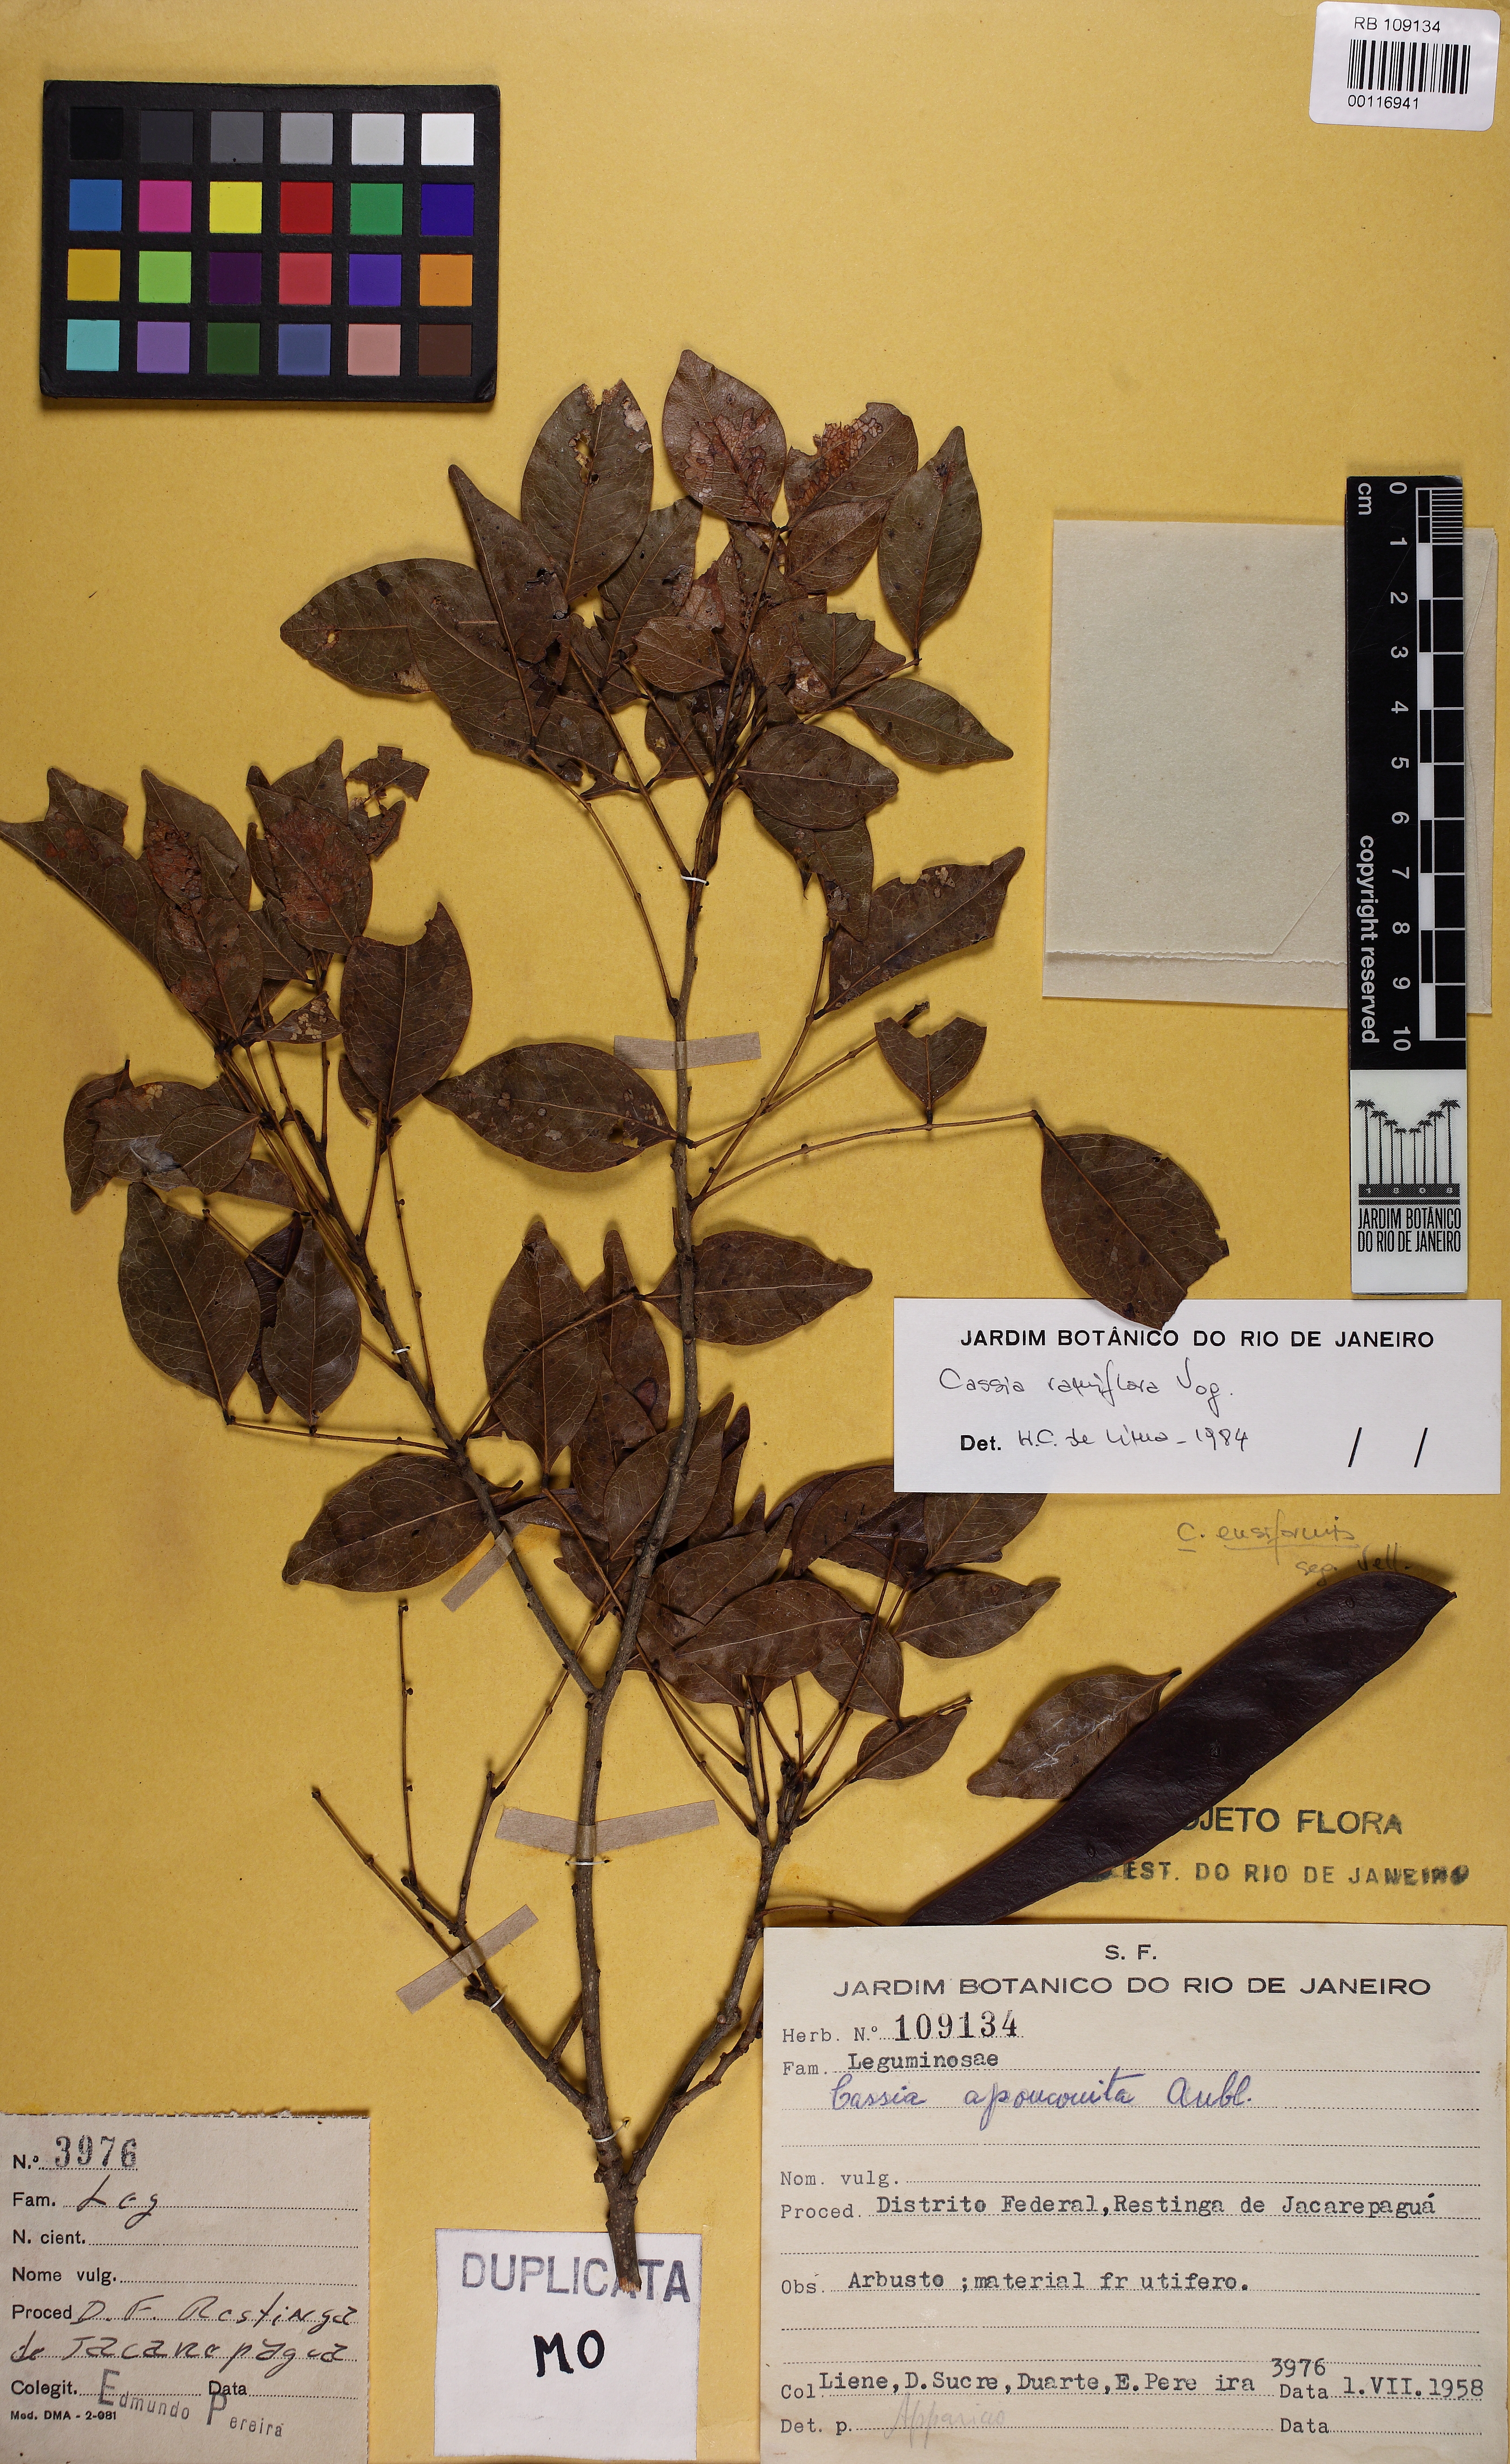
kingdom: Plantae
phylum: Tracheophyta
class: Magnoliopsida
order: Fabales
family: Fabaceae
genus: Chamaecrista
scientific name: Chamaecrista ensiformis
